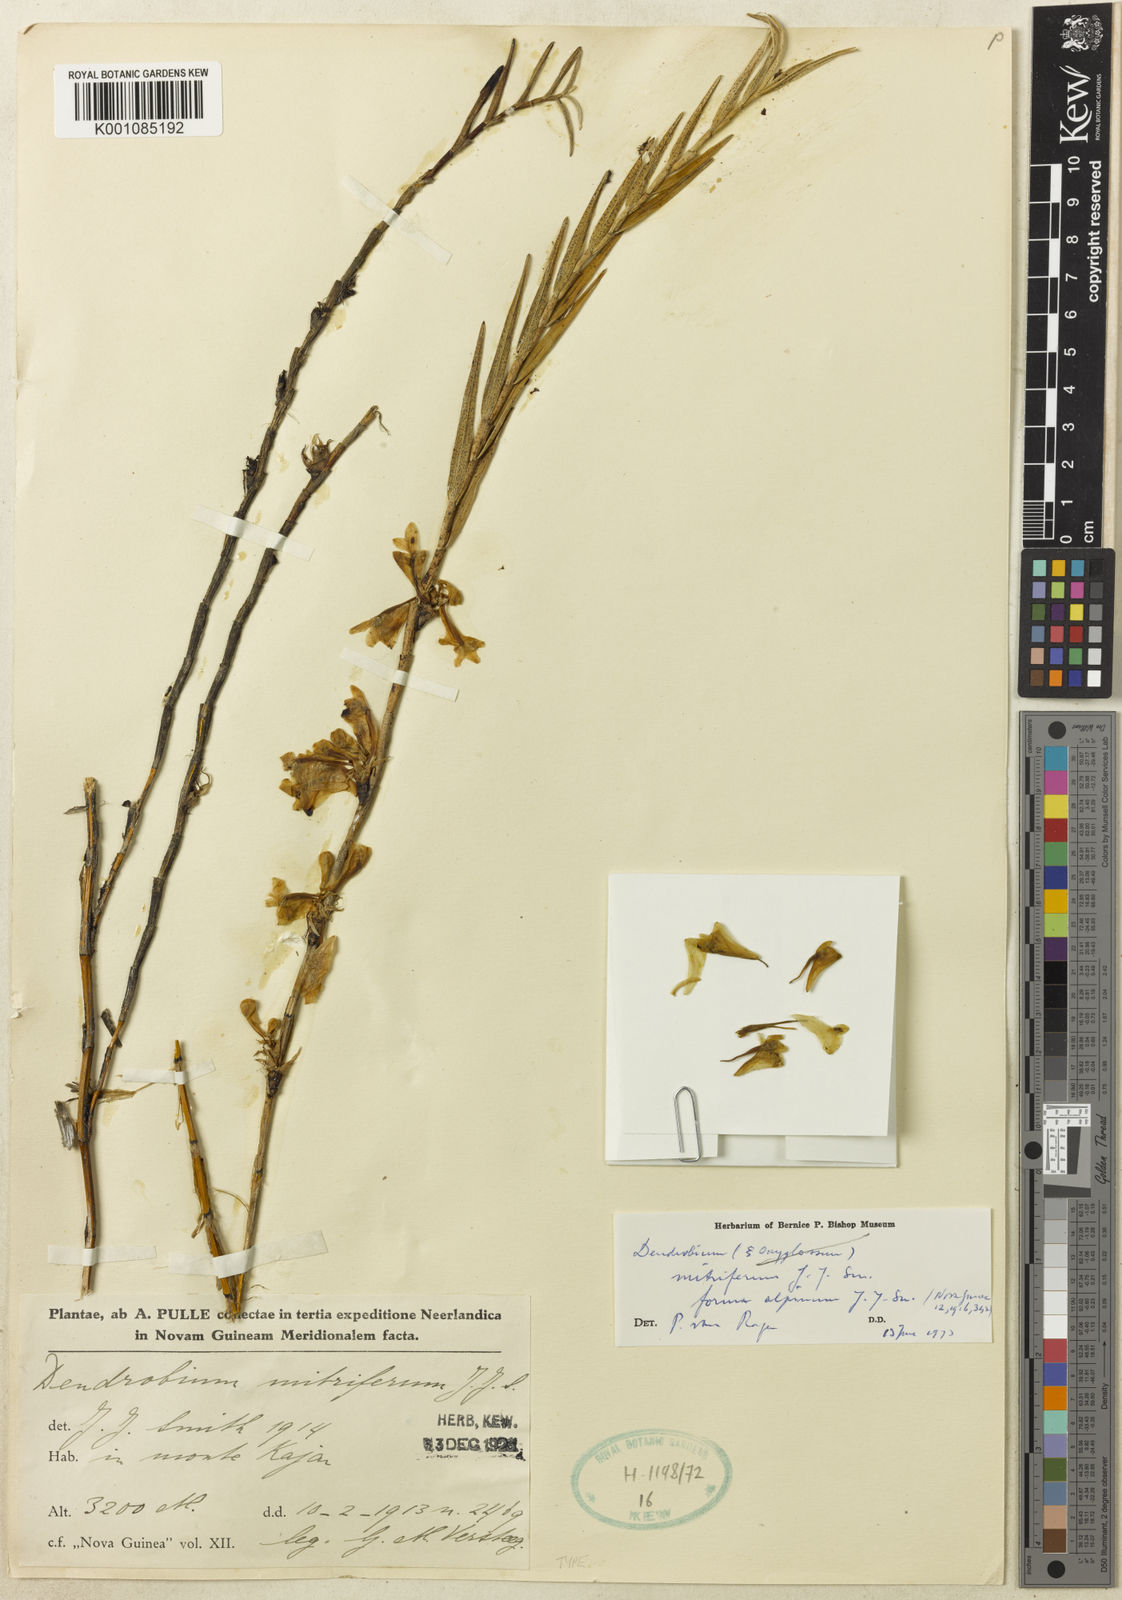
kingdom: Plantae
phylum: Tracheophyta
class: Liliopsida
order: Asparagales
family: Orchidaceae
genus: Dendrobium
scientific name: Dendrobium subclausum
